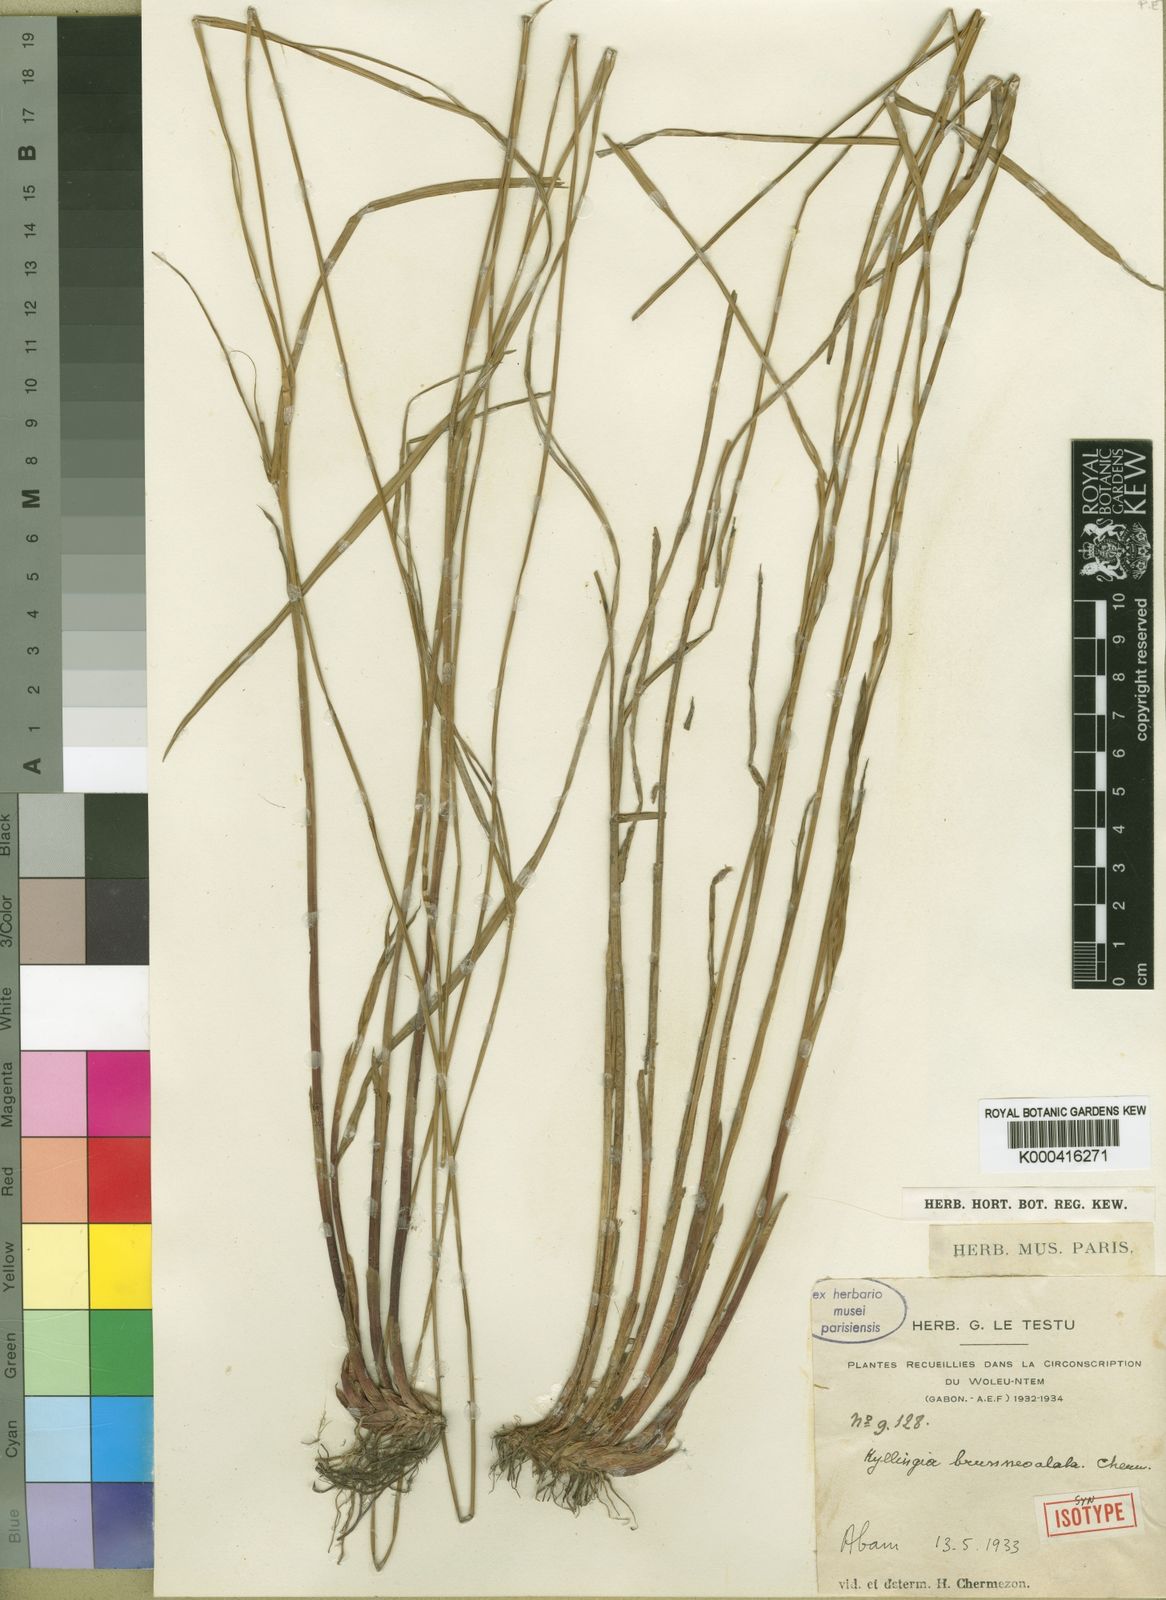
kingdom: Plantae
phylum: Tracheophyta
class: Liliopsida
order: Poales
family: Cyperaceae
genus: Cyperus
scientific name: Cyperus brunneoalatus
